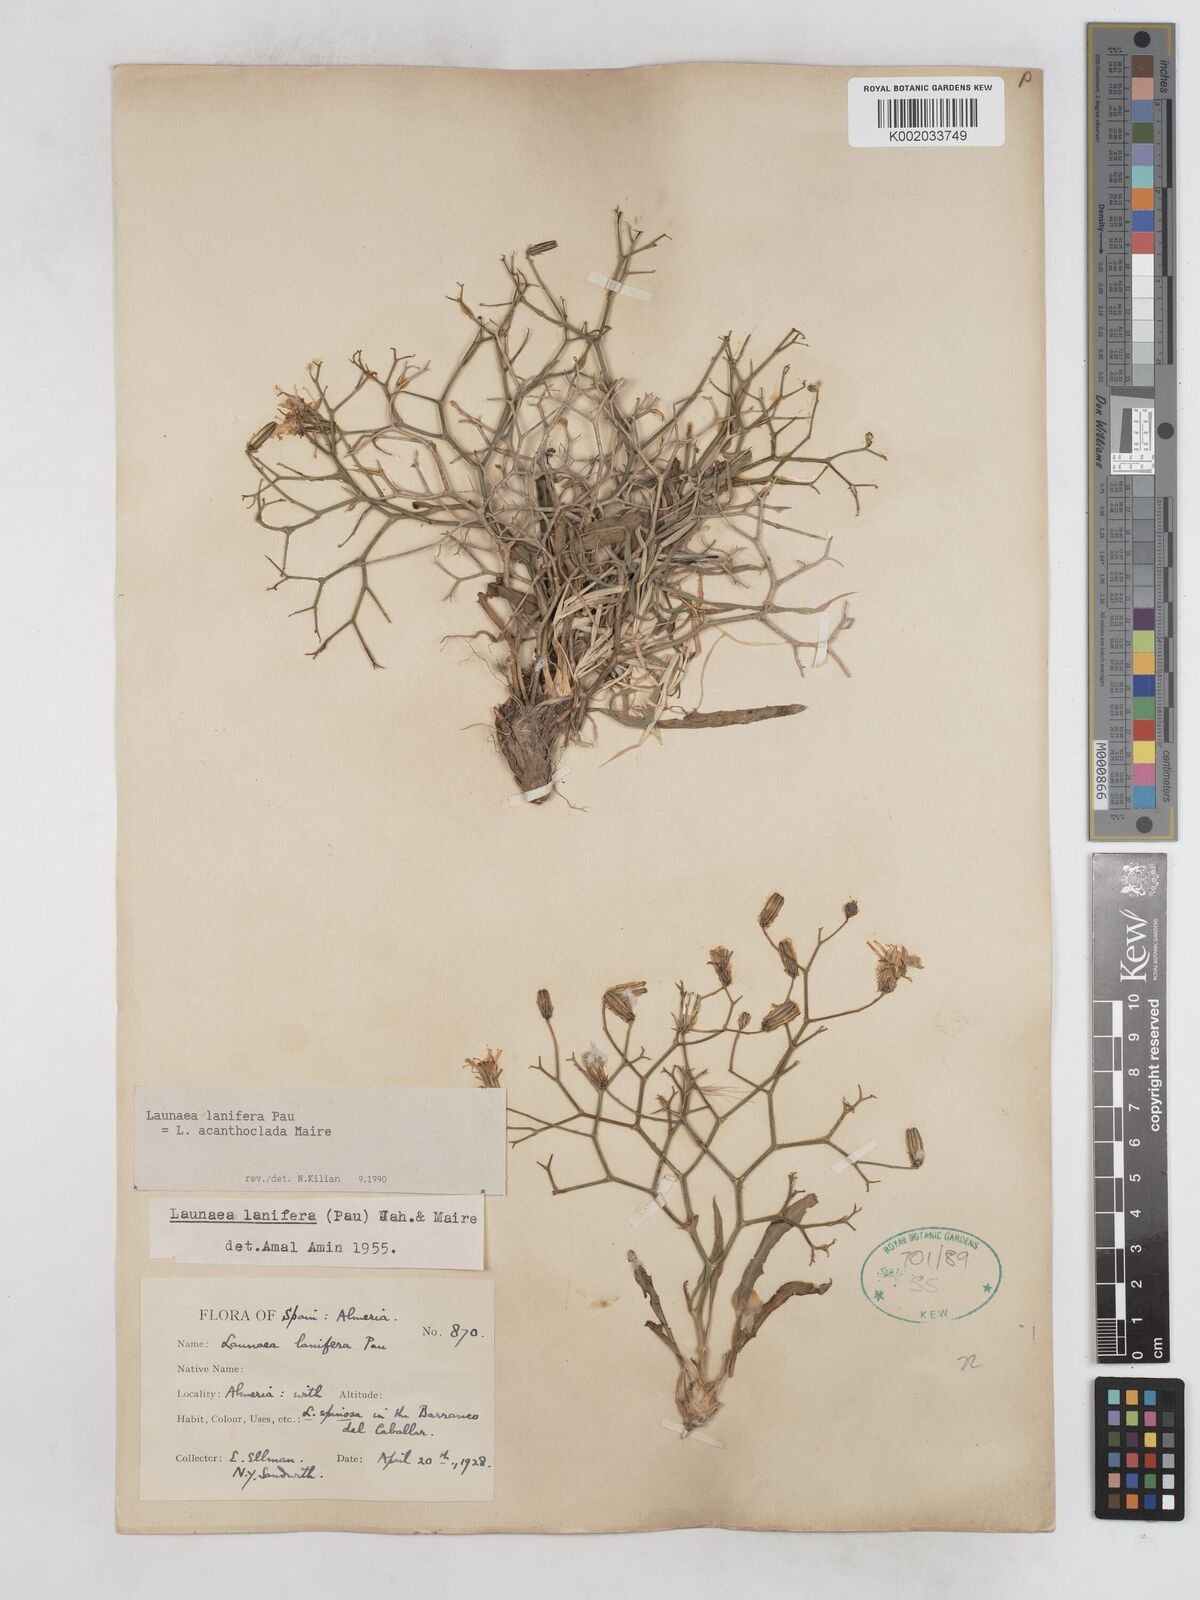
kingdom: Plantae
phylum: Tracheophyta
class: Magnoliopsida
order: Asterales
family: Asteraceae
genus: Launaea
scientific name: Launaea lanifera
